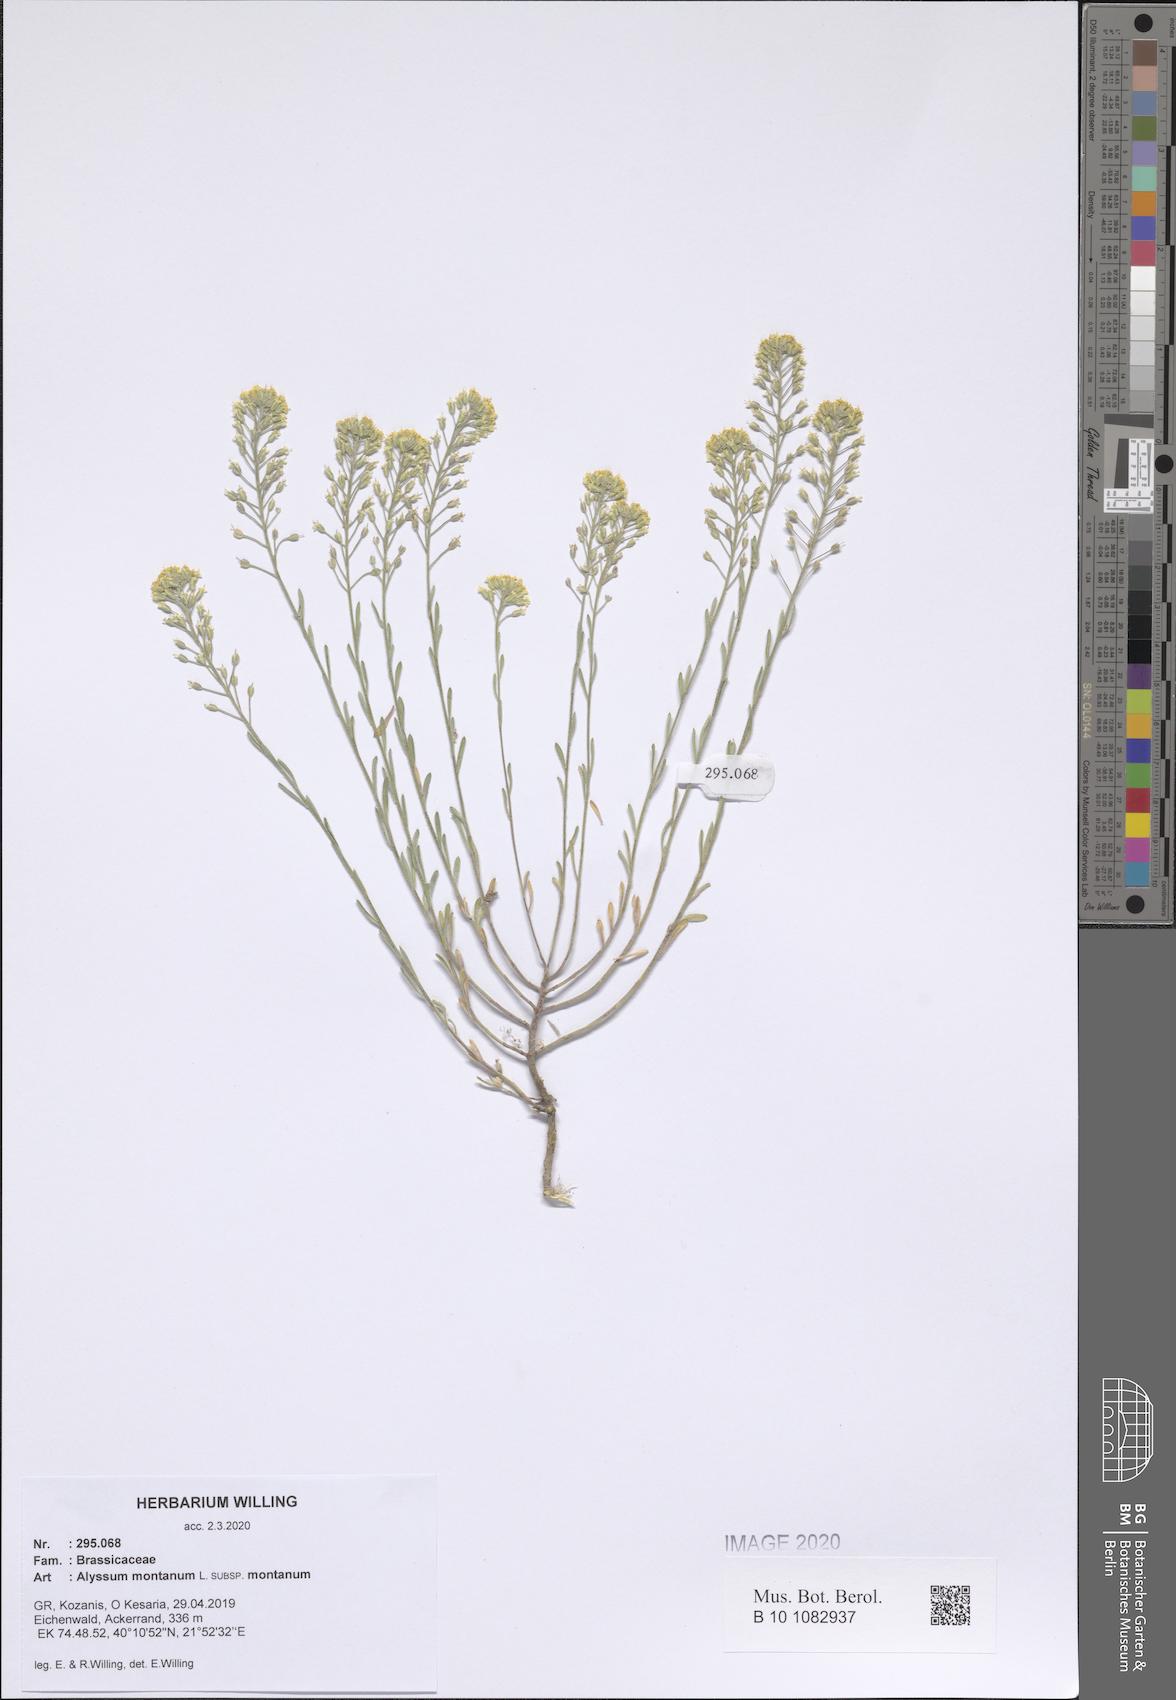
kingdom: Plantae
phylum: Tracheophyta
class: Magnoliopsida
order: Brassicales
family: Brassicaceae
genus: Alyssum
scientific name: Alyssum montanum
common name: Mountain alison
